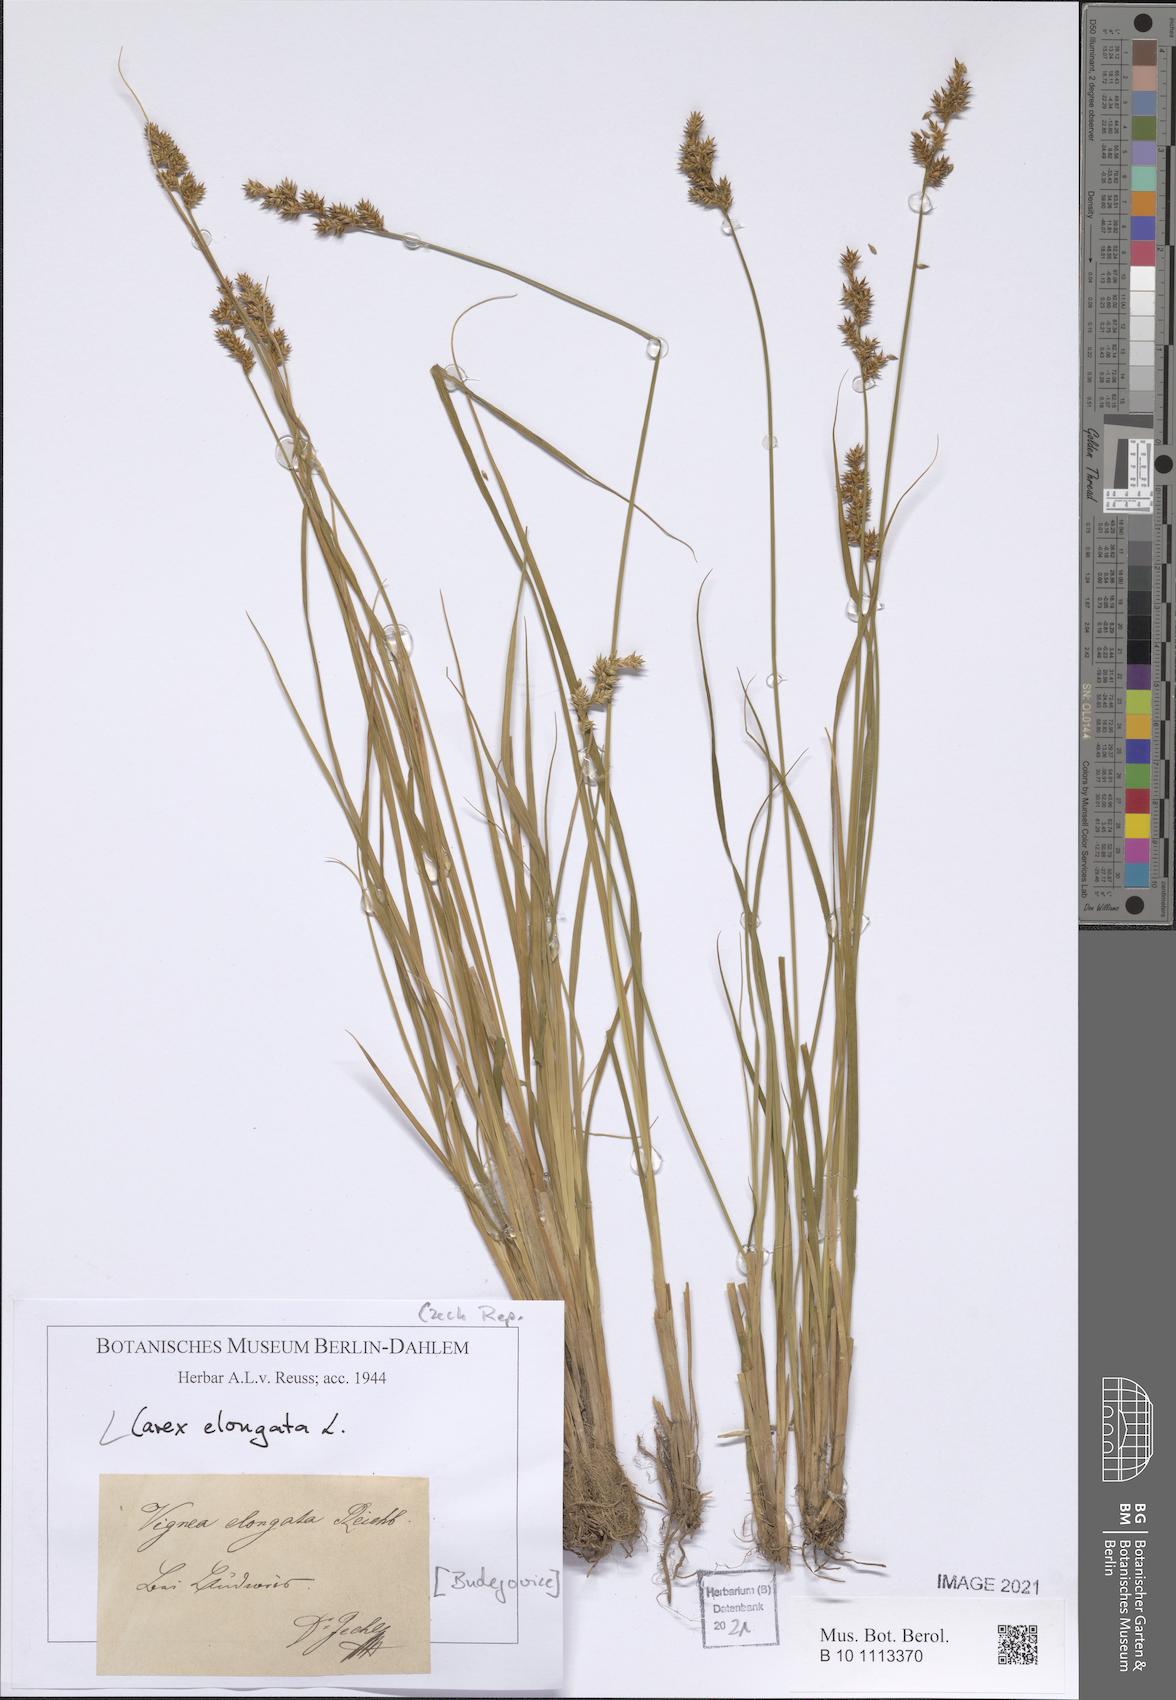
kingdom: Plantae
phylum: Tracheophyta
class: Liliopsida
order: Poales
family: Cyperaceae
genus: Carex
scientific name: Carex elongata
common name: Elongated sedge
